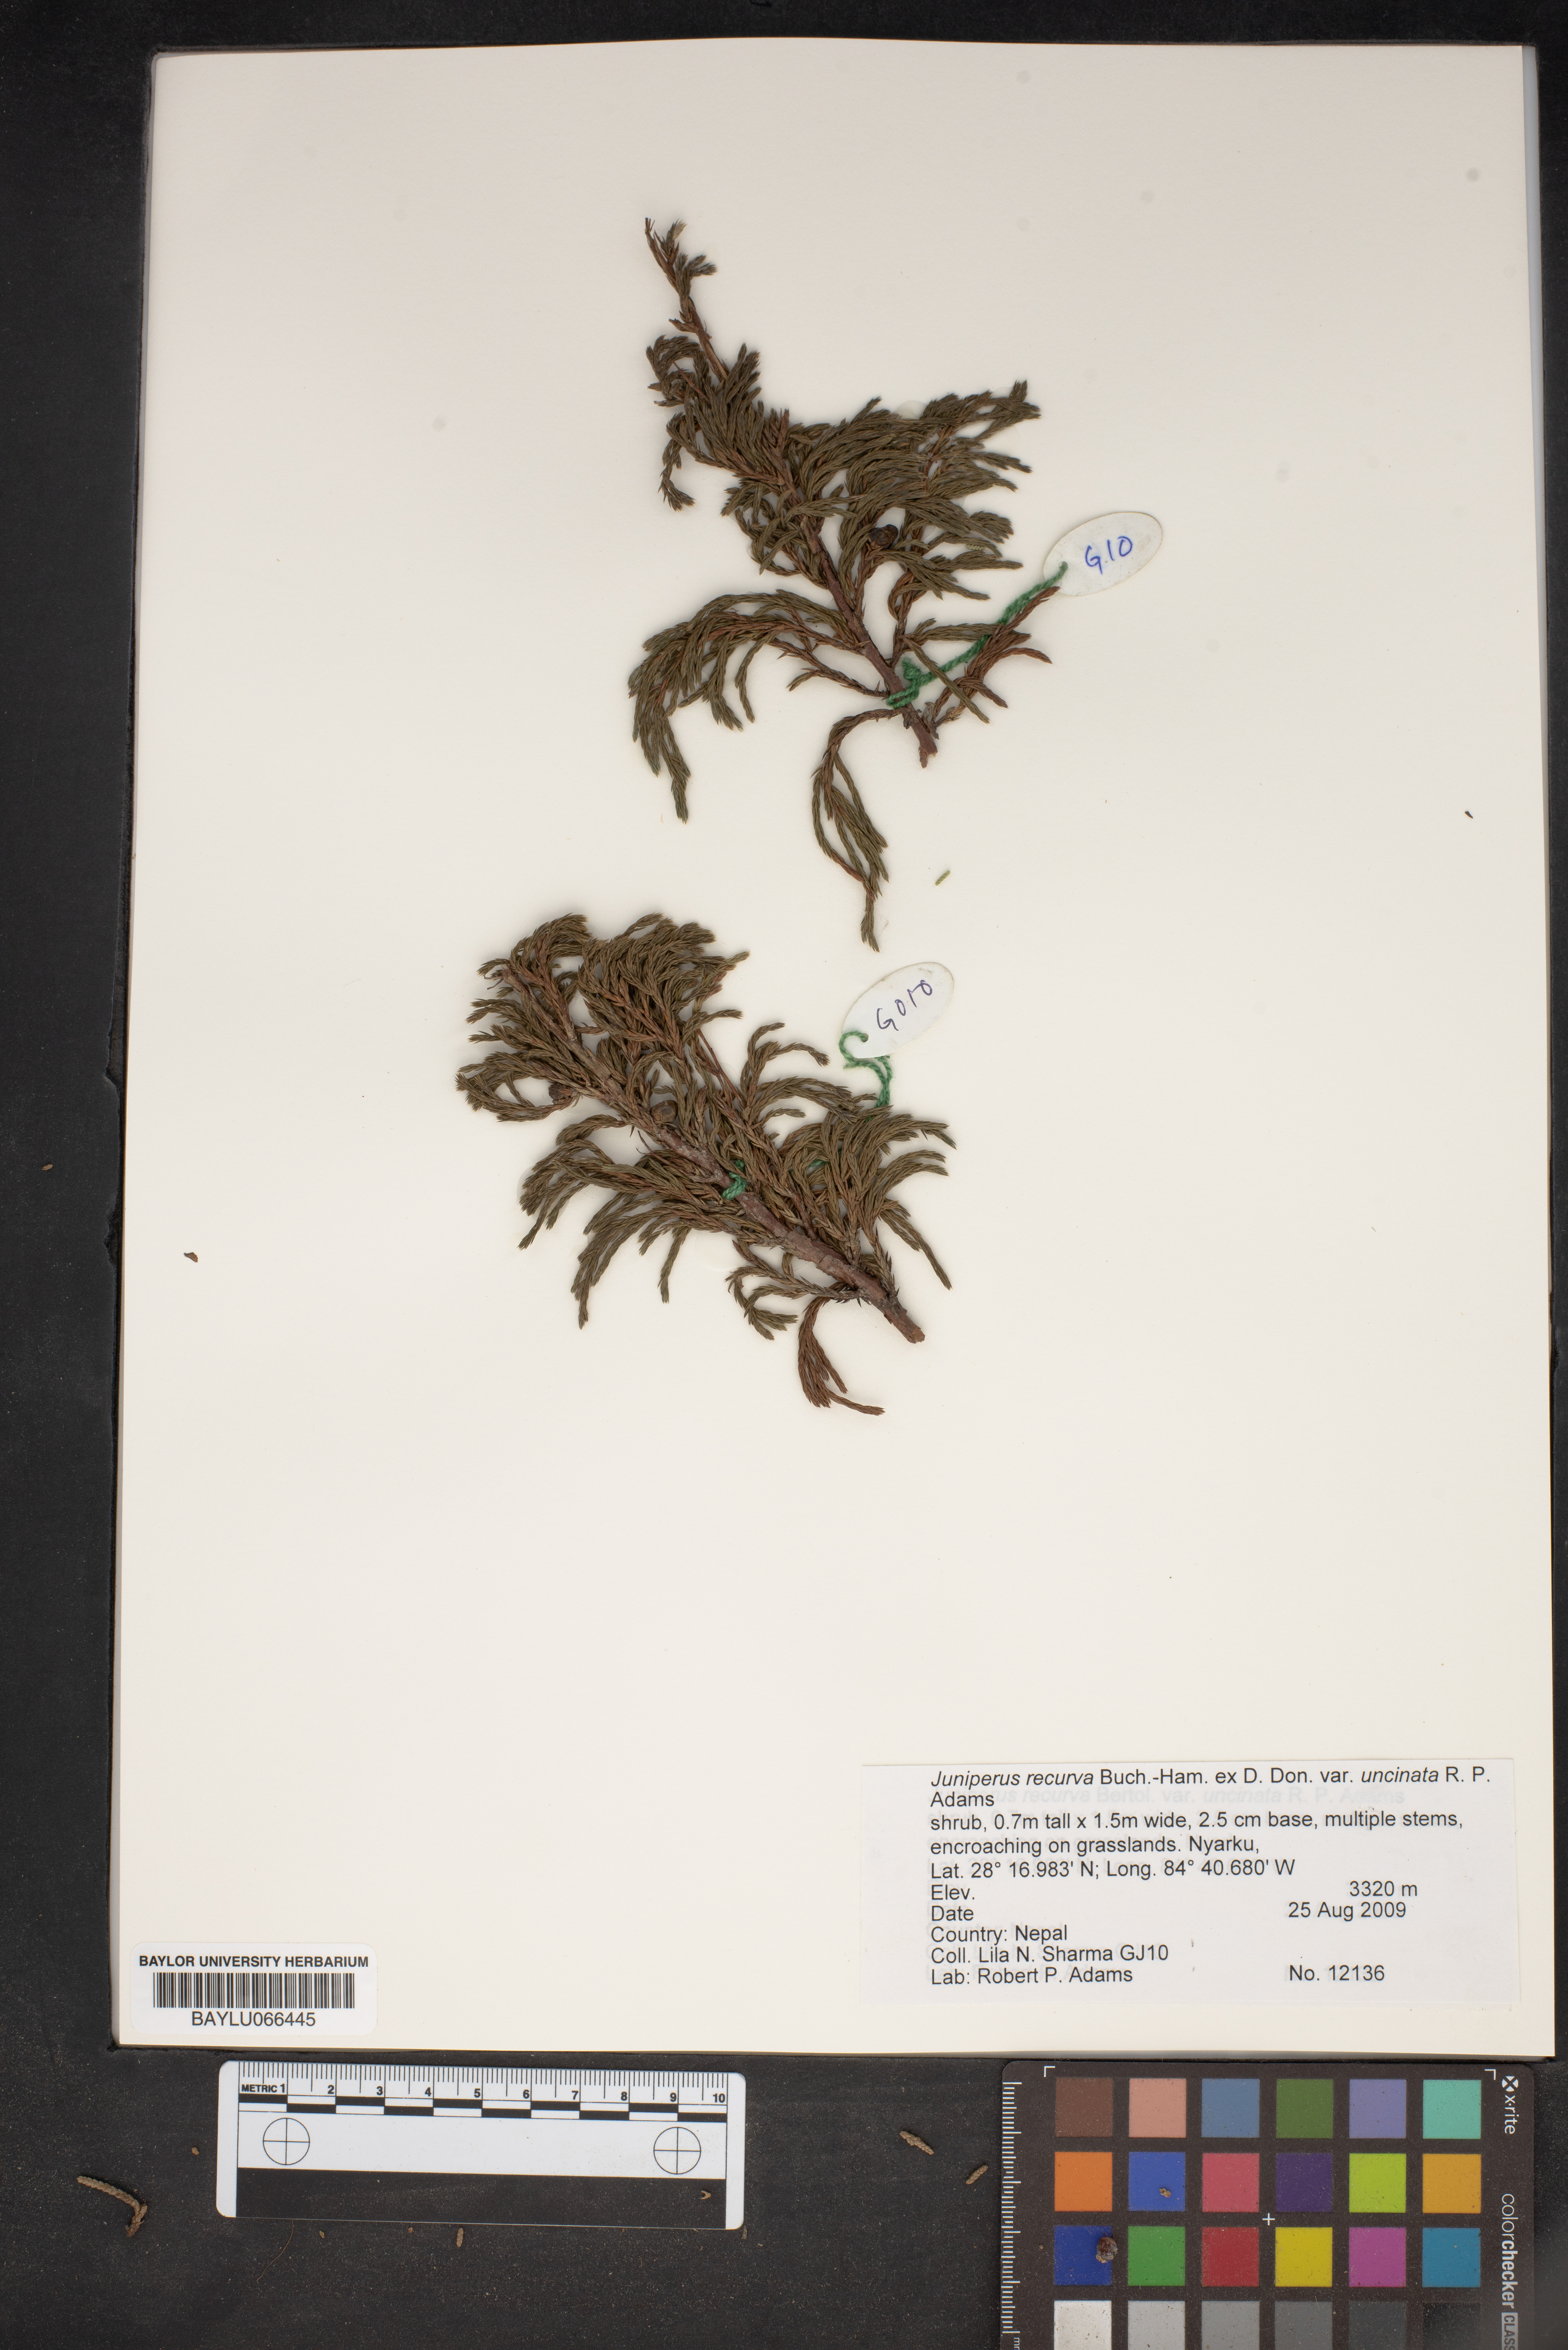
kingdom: Plantae
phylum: Tracheophyta
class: Pinopsida
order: Pinales
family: Cupressaceae
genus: Juniperus
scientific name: Juniperus recurva
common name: Drooping juniper
